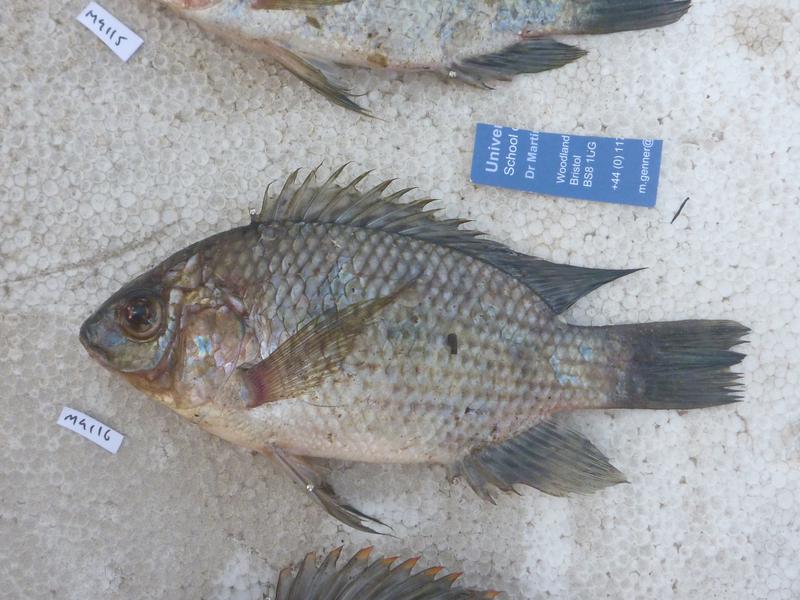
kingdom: Animalia
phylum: Chordata
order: Perciformes
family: Cichlidae
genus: Oreochromis
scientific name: Oreochromis upembae
